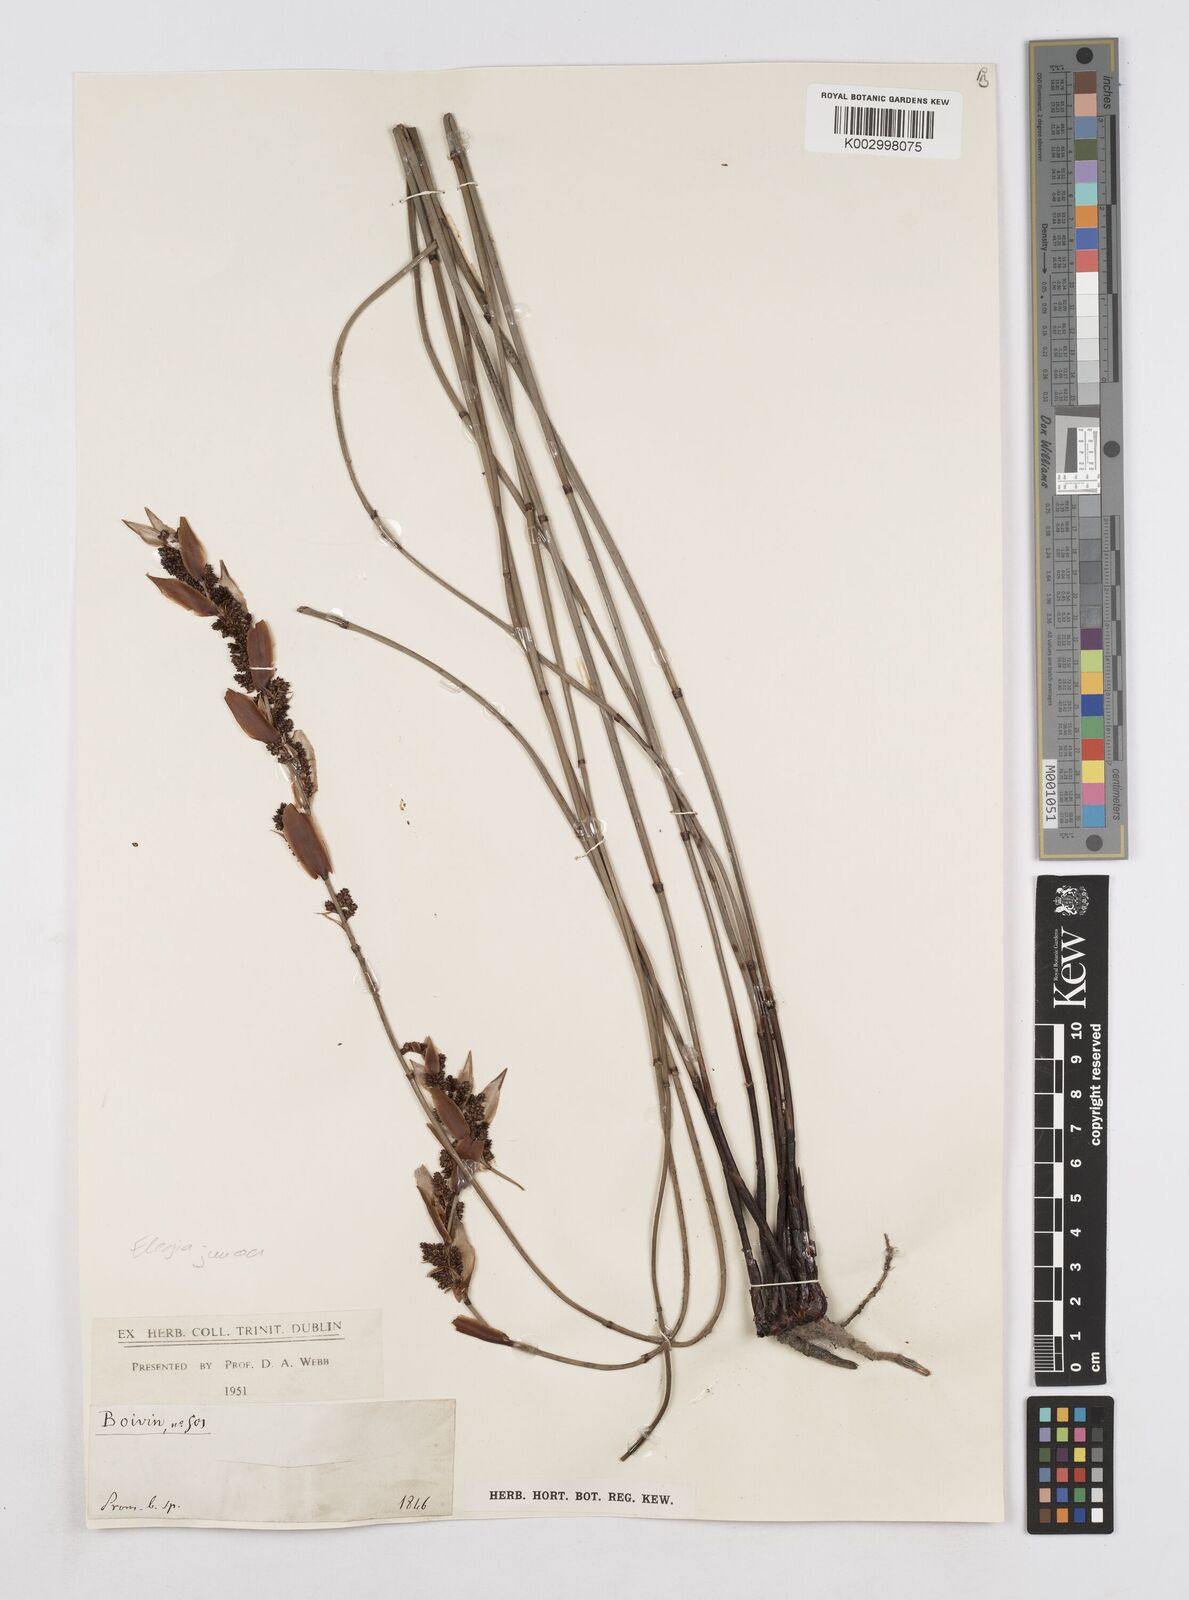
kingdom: Plantae
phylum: Tracheophyta
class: Liliopsida
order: Poales
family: Restionaceae
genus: Elegia
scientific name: Elegia
